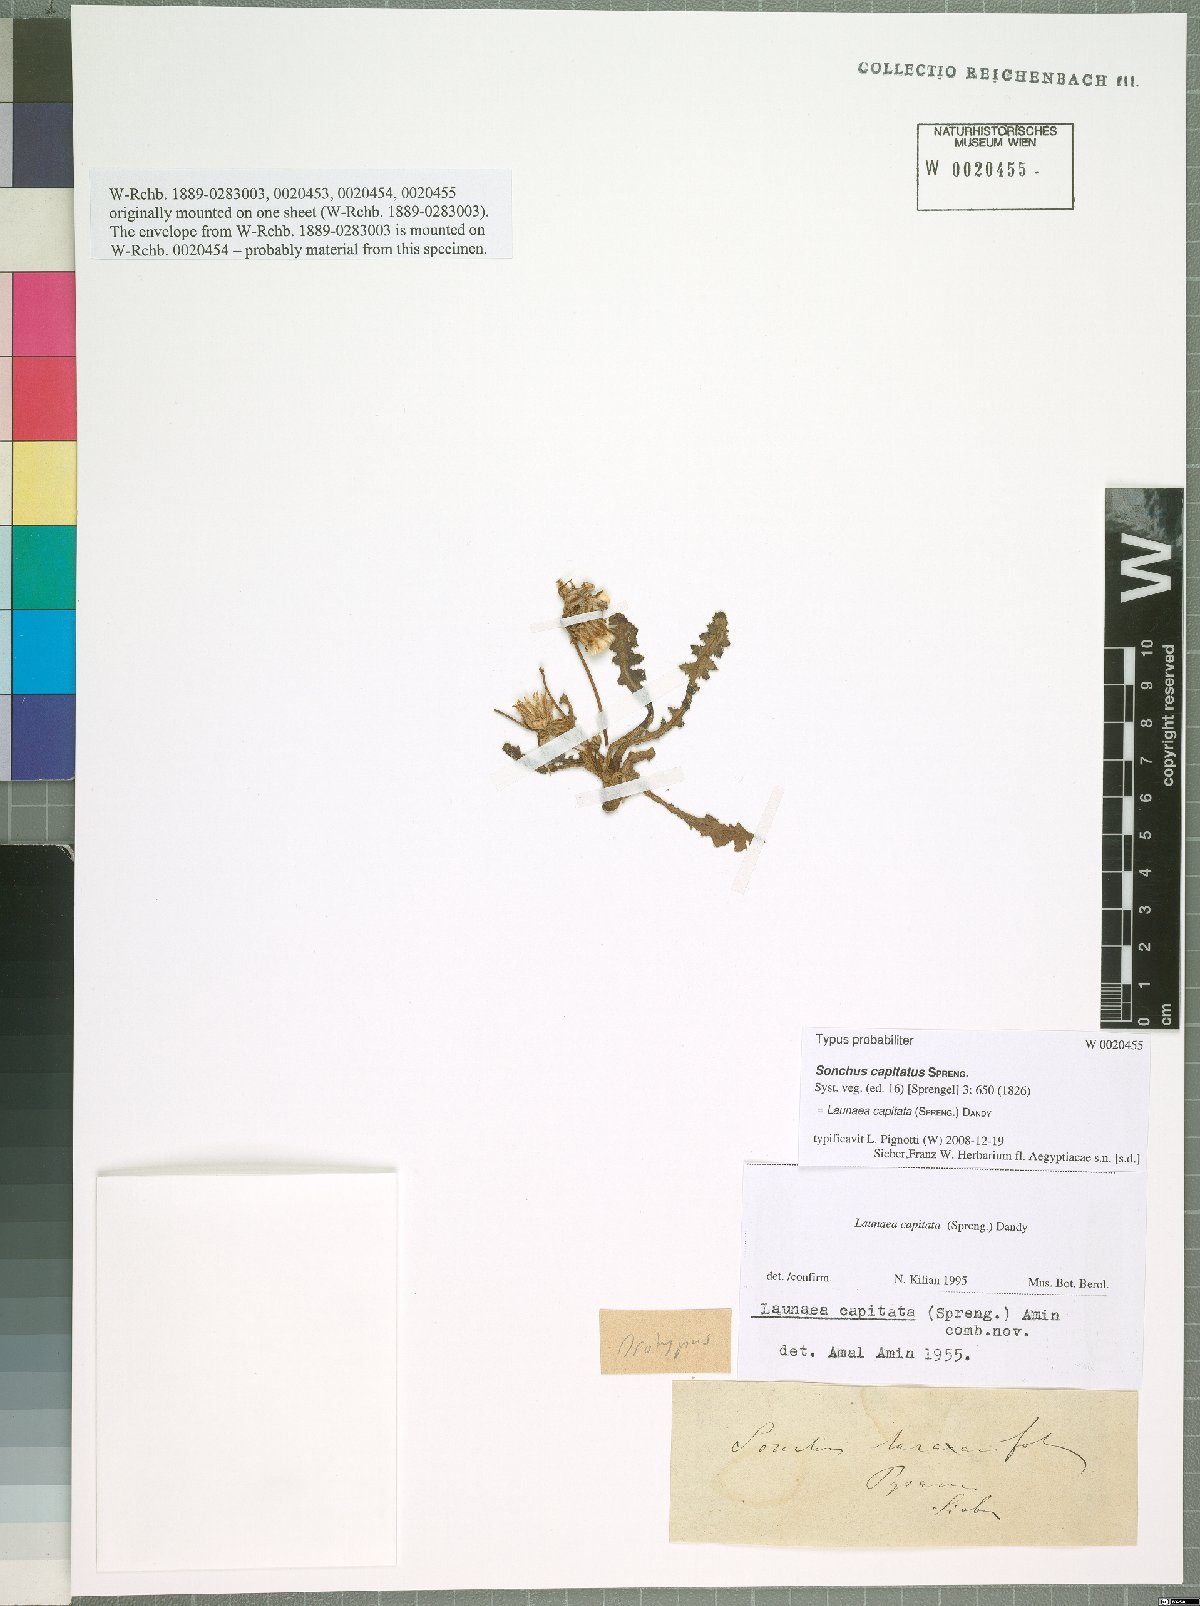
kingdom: Plantae
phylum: Tracheophyta
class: Magnoliopsida
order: Asterales
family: Asteraceae
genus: Launaea
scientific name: Launaea capitata
